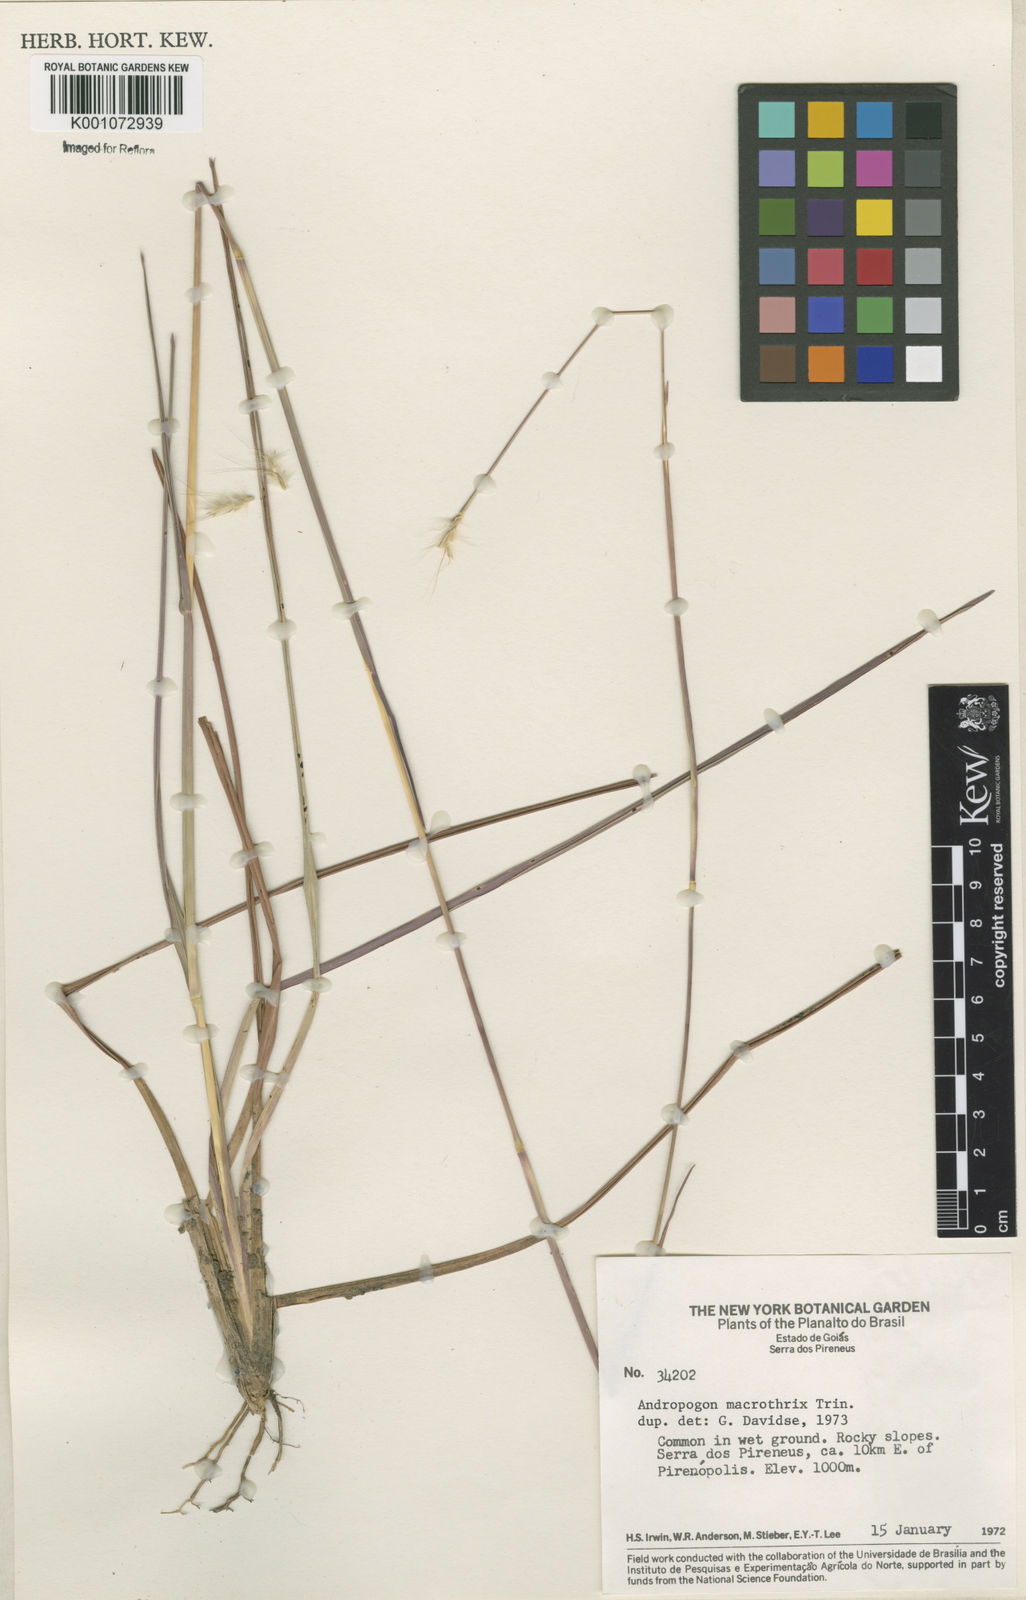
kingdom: Plantae
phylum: Tracheophyta
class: Liliopsida
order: Poales
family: Poaceae
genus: Andropogon
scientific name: Andropogon macrothrix
